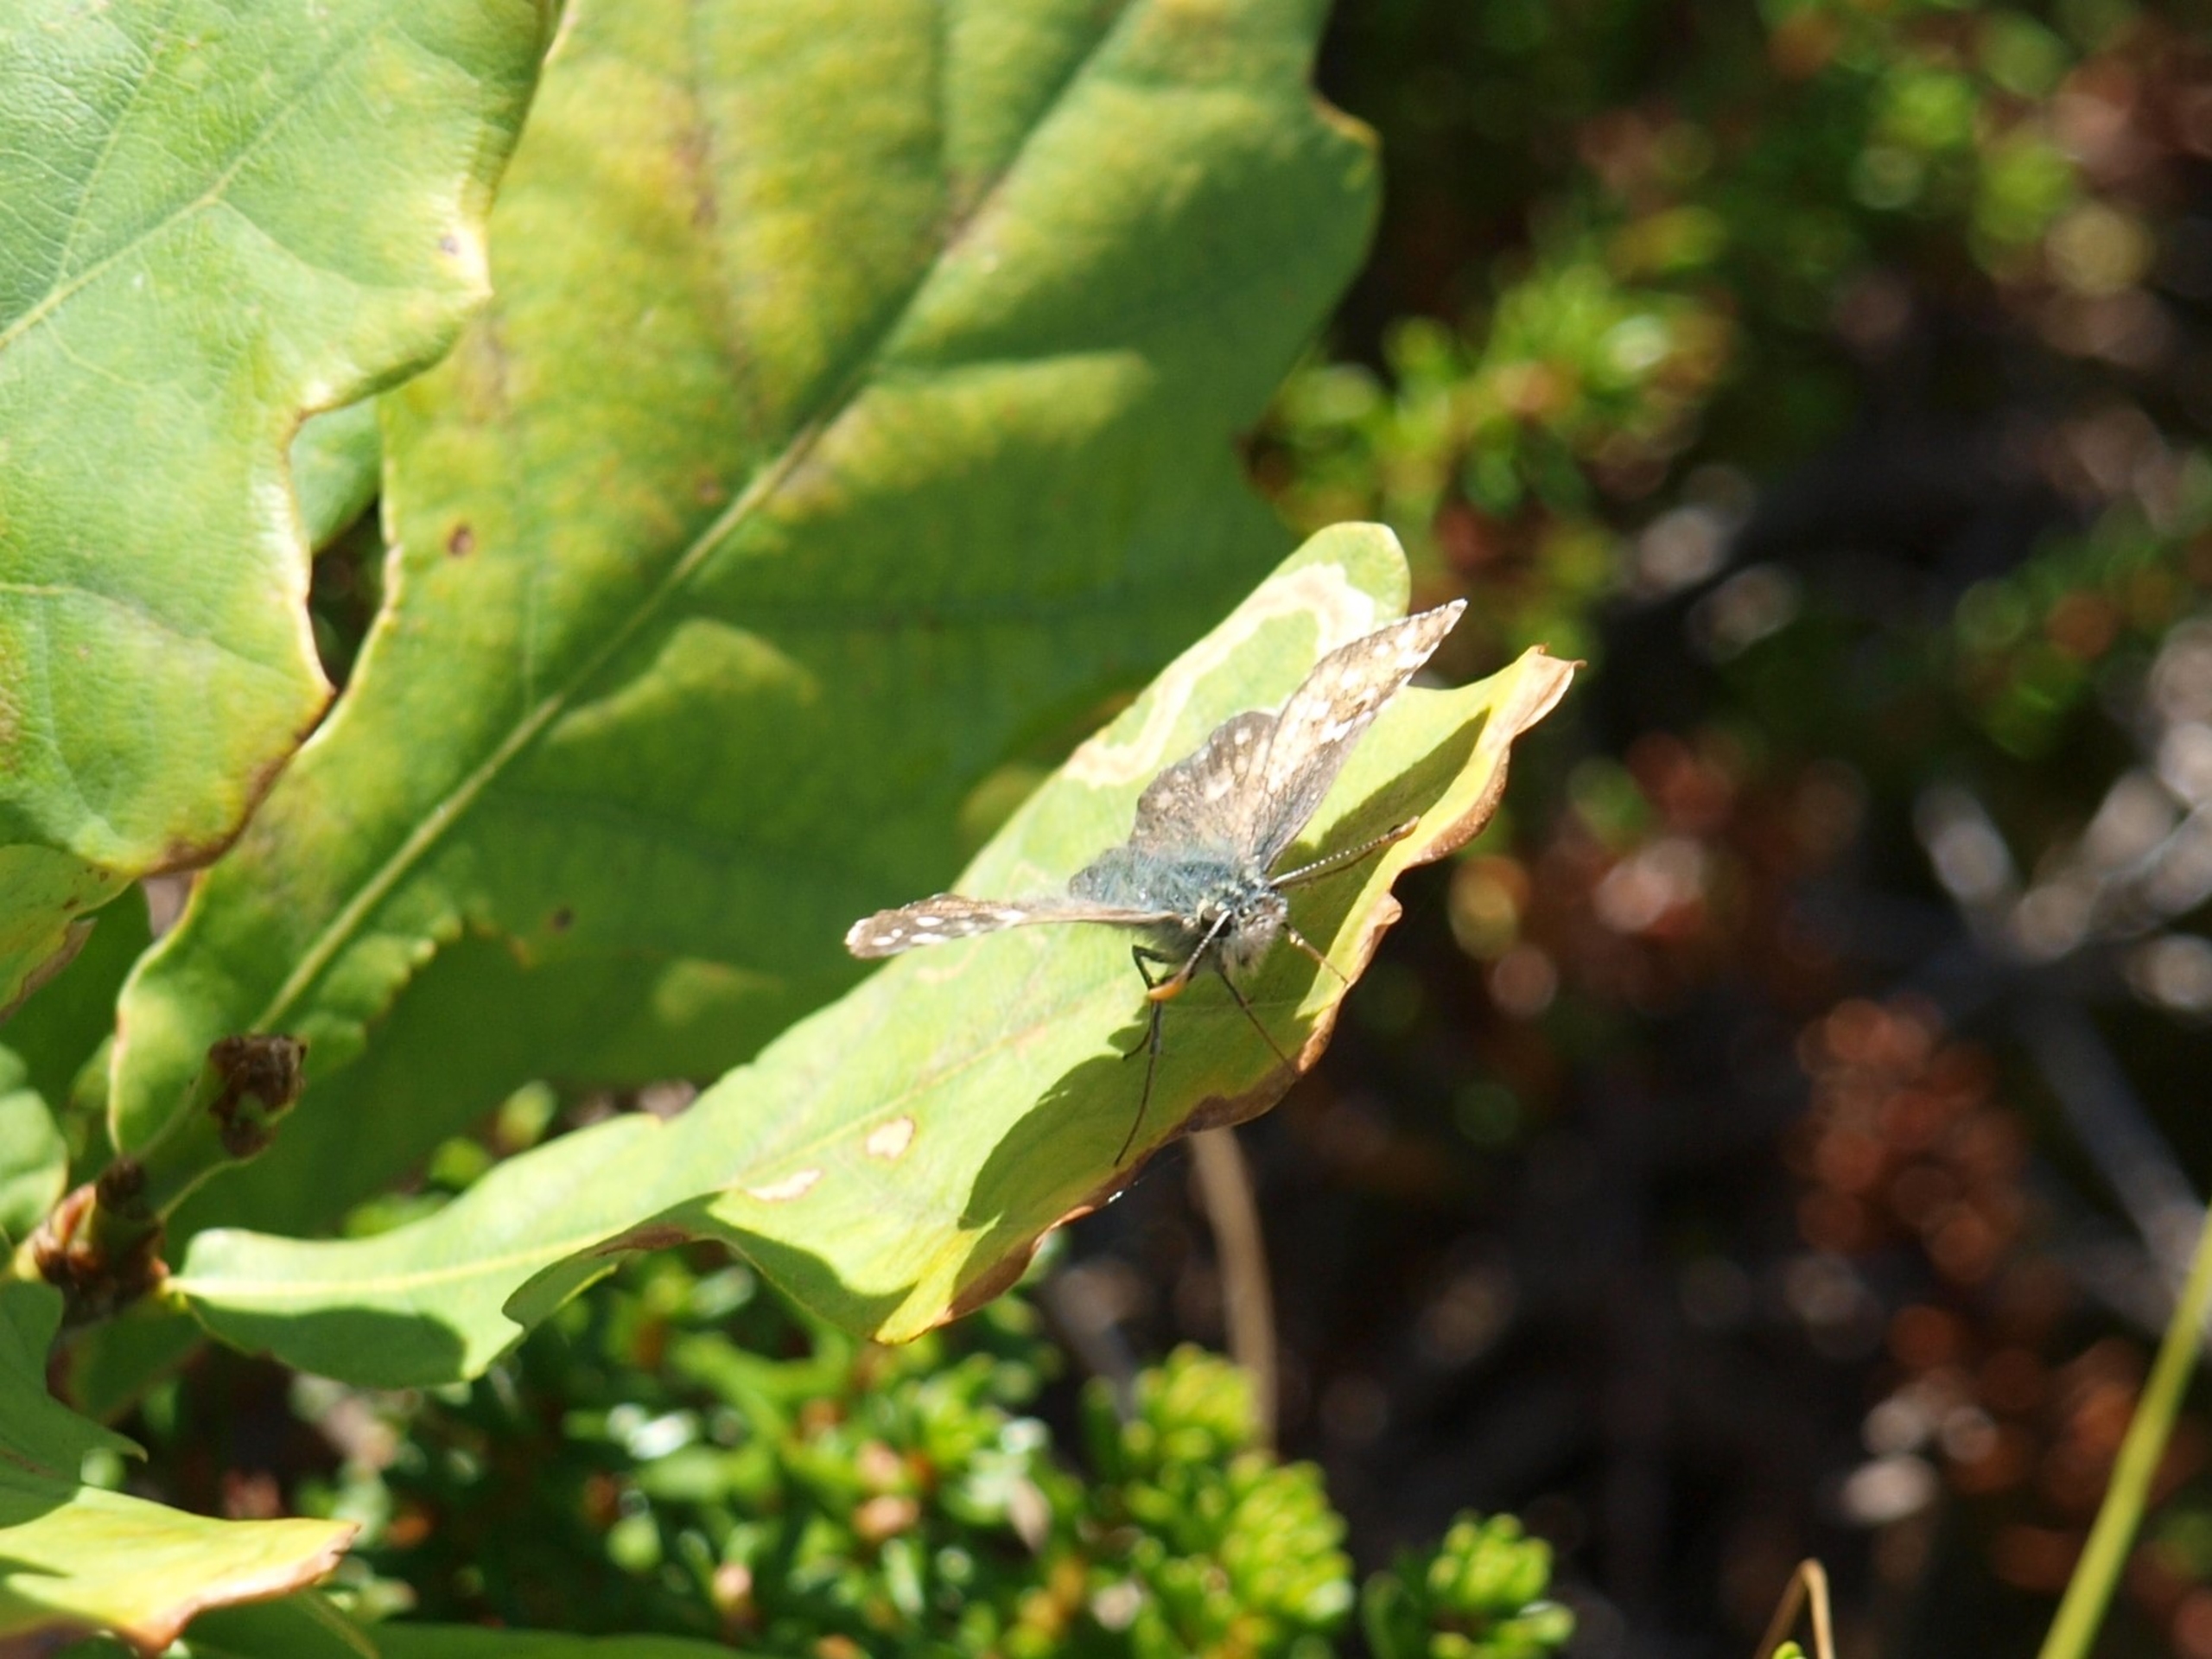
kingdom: Animalia
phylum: Arthropoda
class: Insecta
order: Lepidoptera
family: Hesperiidae
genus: Pyrgus
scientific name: Pyrgus armoricanus
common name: Fransk bredpande
